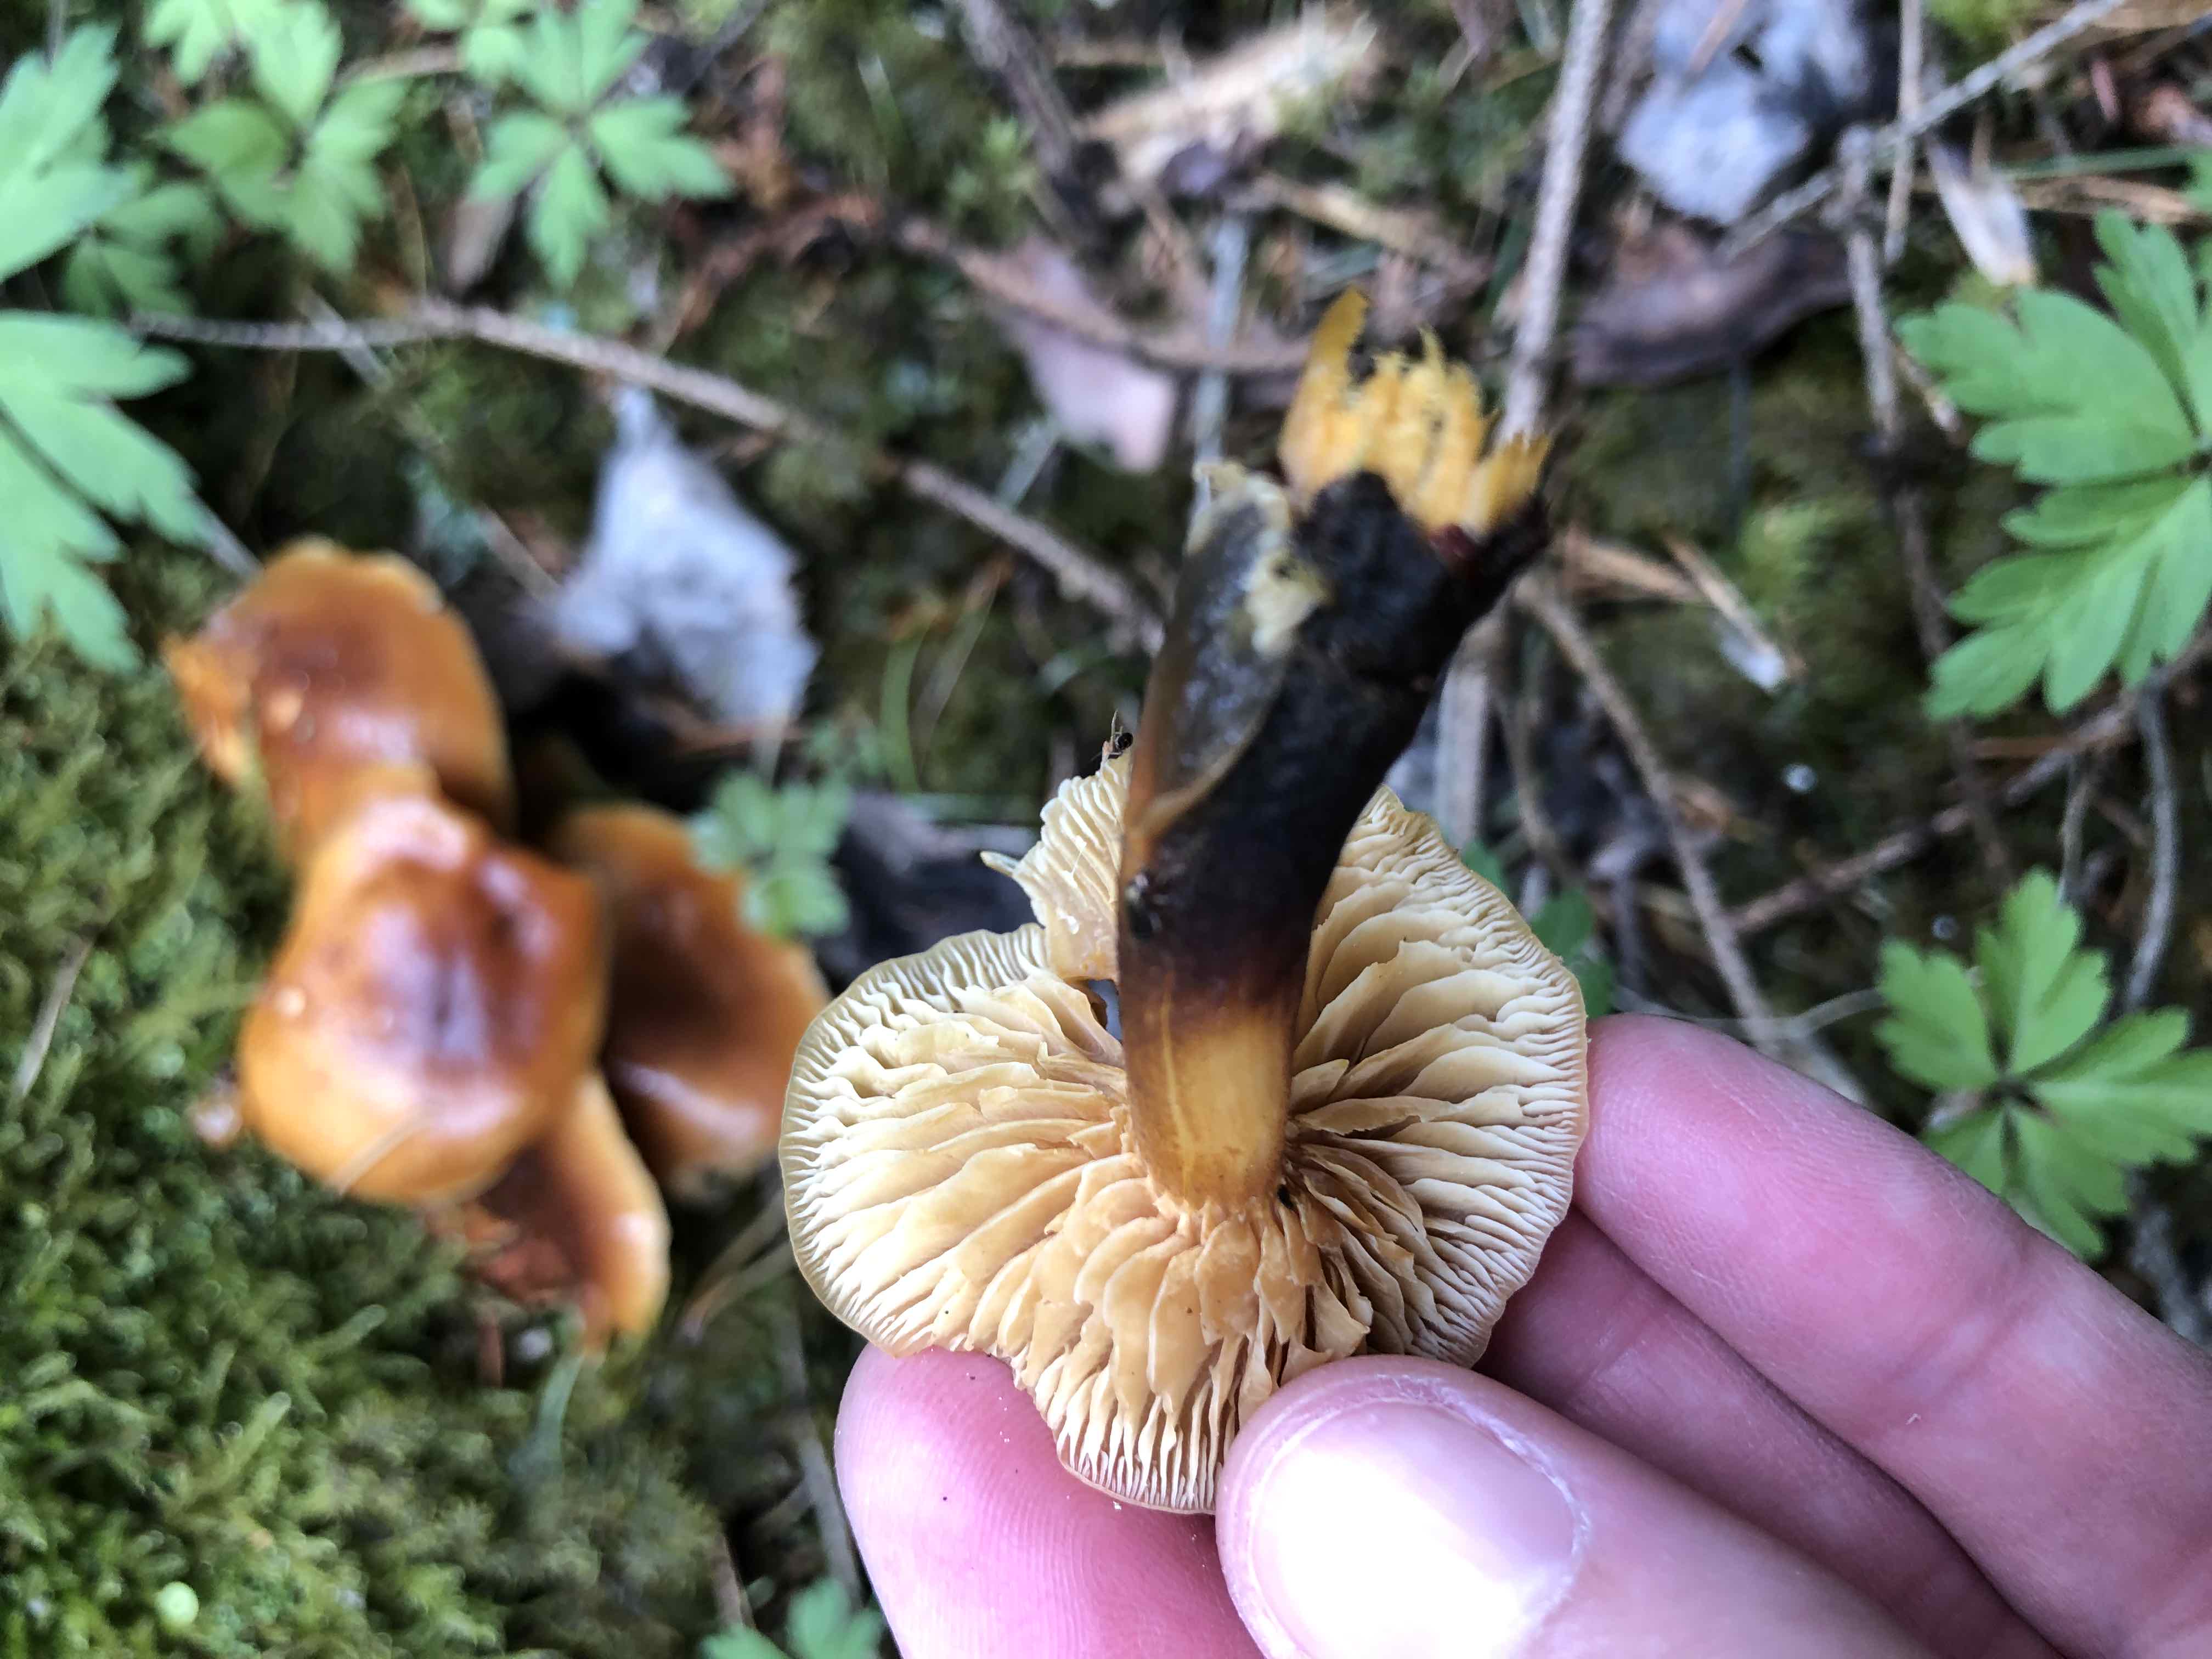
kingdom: Fungi
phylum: Basidiomycota
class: Agaricomycetes
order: Agaricales
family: Physalacriaceae
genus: Flammulina
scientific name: Flammulina
